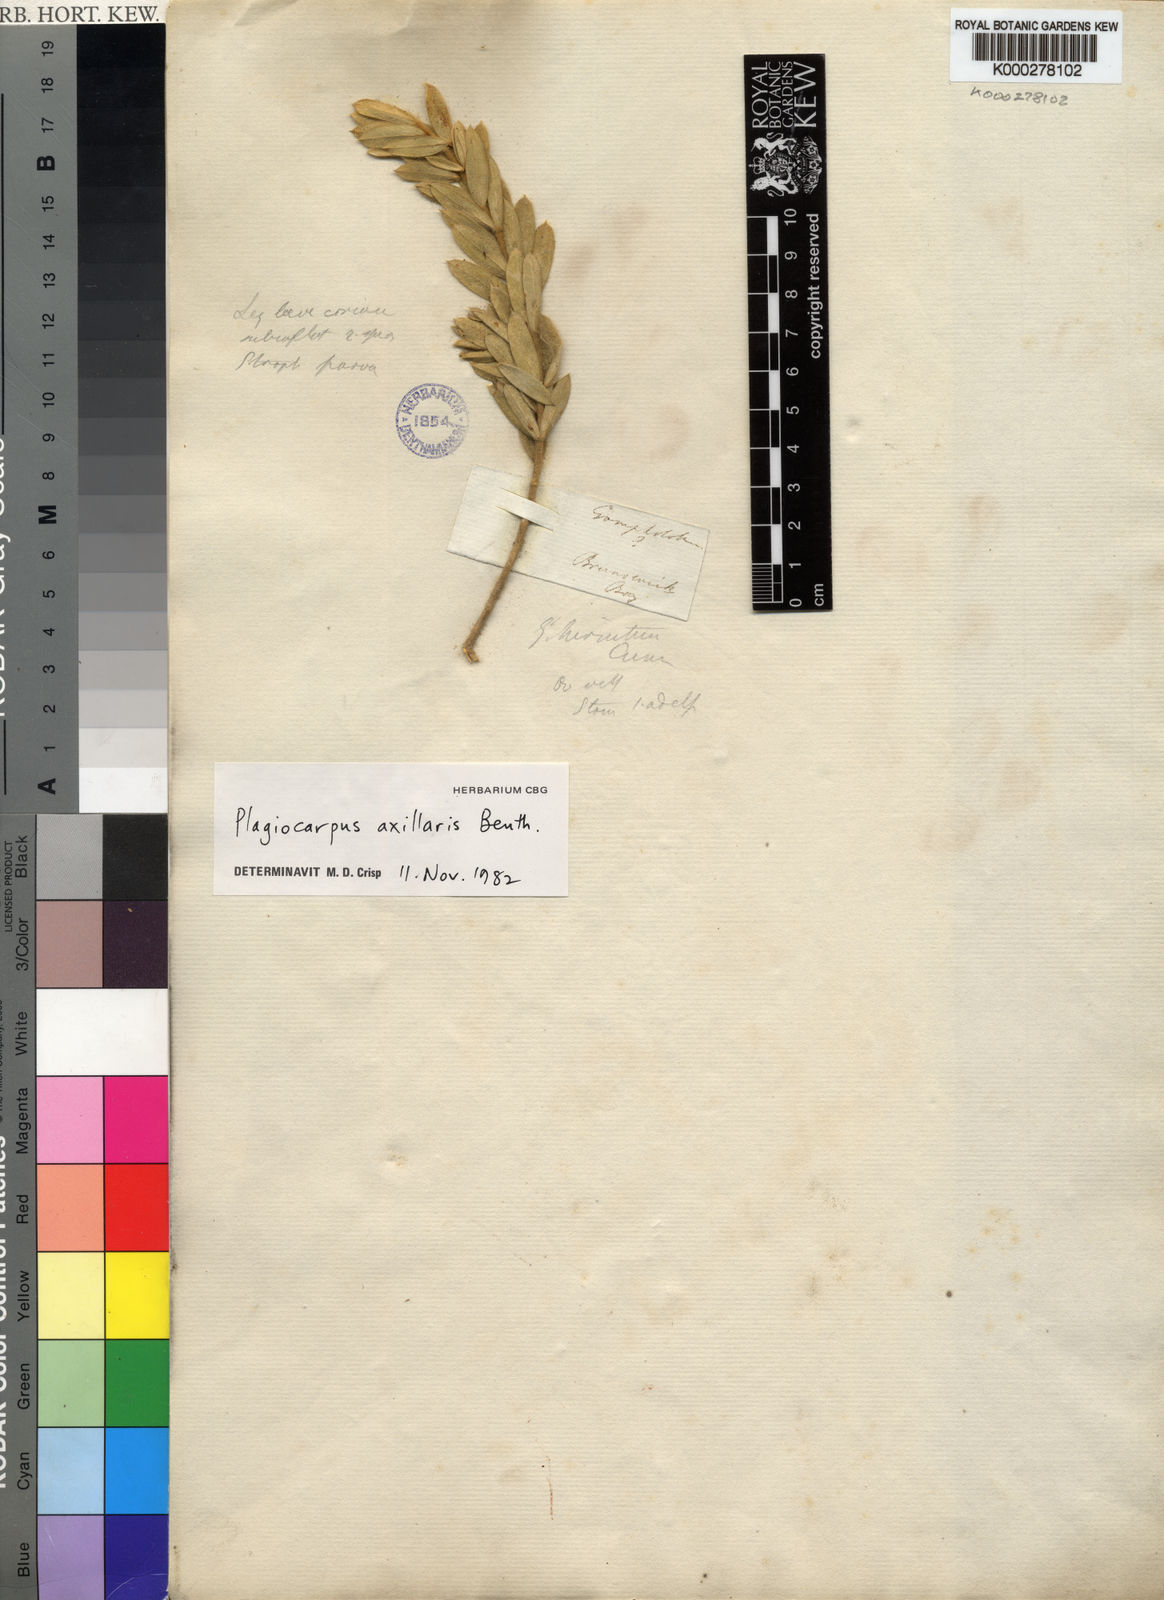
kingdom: Plantae
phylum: Tracheophyta
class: Magnoliopsida
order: Fabales
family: Fabaceae
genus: Plagiocarpus
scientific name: Plagiocarpus axillaris
